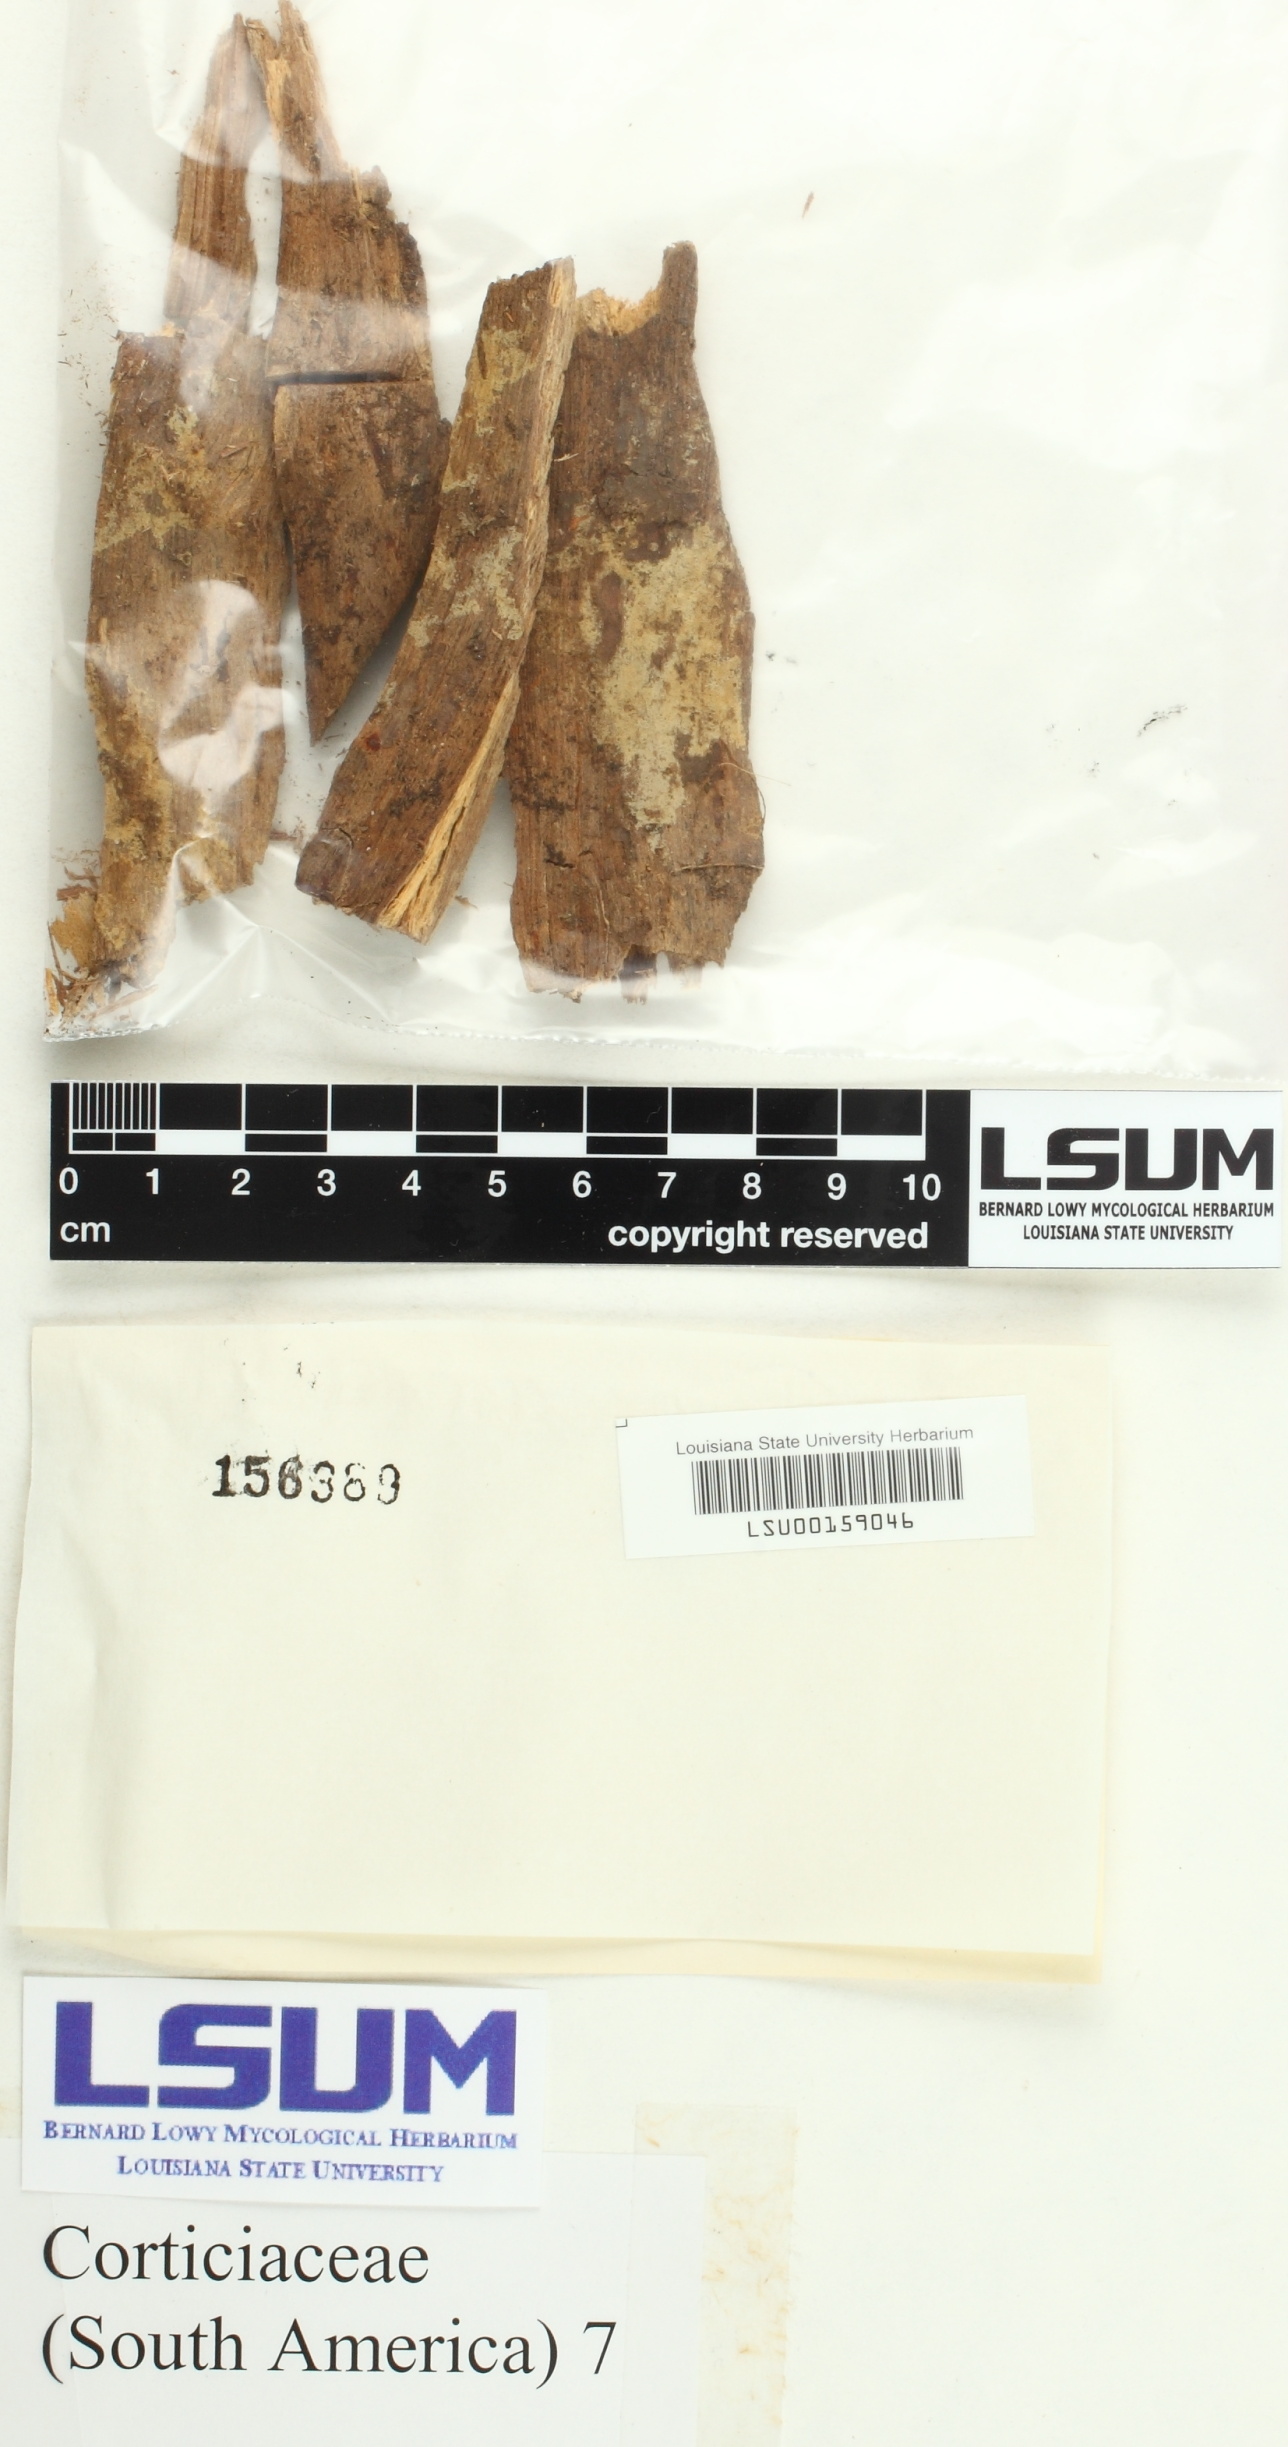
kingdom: Fungi
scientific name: Fungi
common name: Fungi
